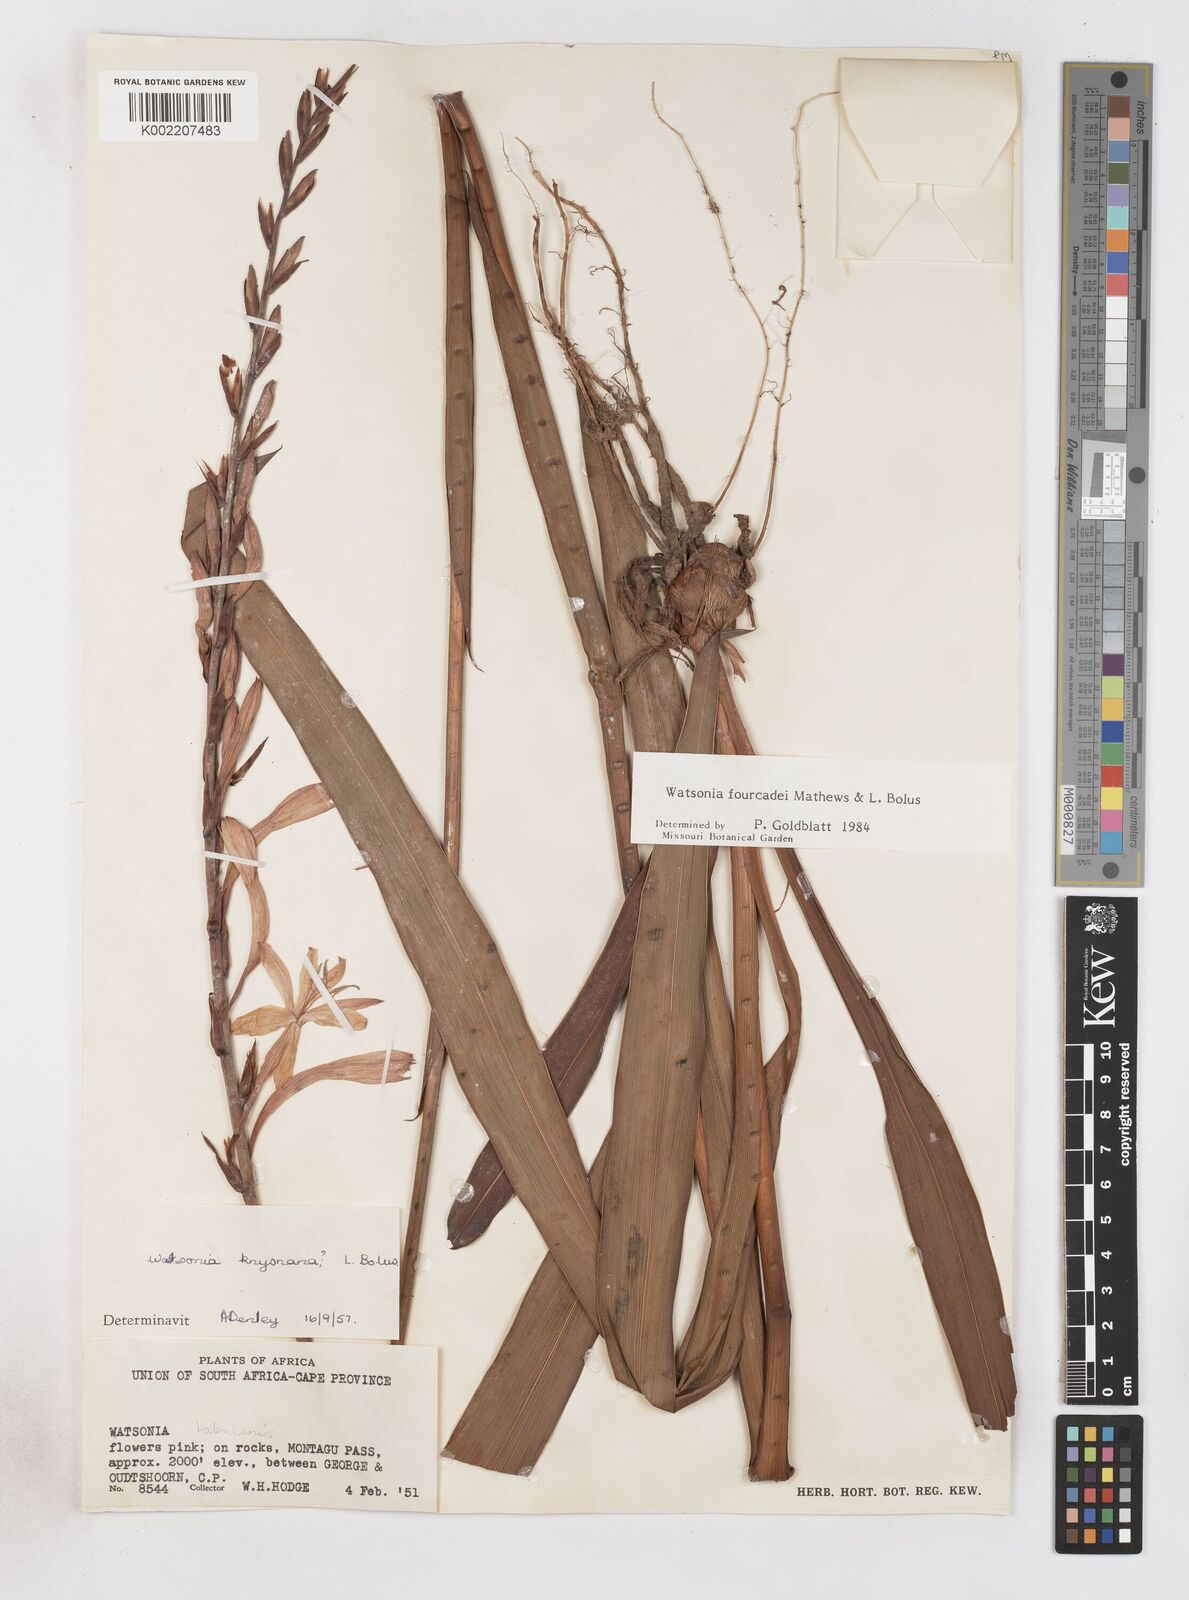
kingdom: Plantae
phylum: Tracheophyta
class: Liliopsida
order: Asparagales
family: Iridaceae
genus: Watsonia
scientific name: Watsonia fourcadei
